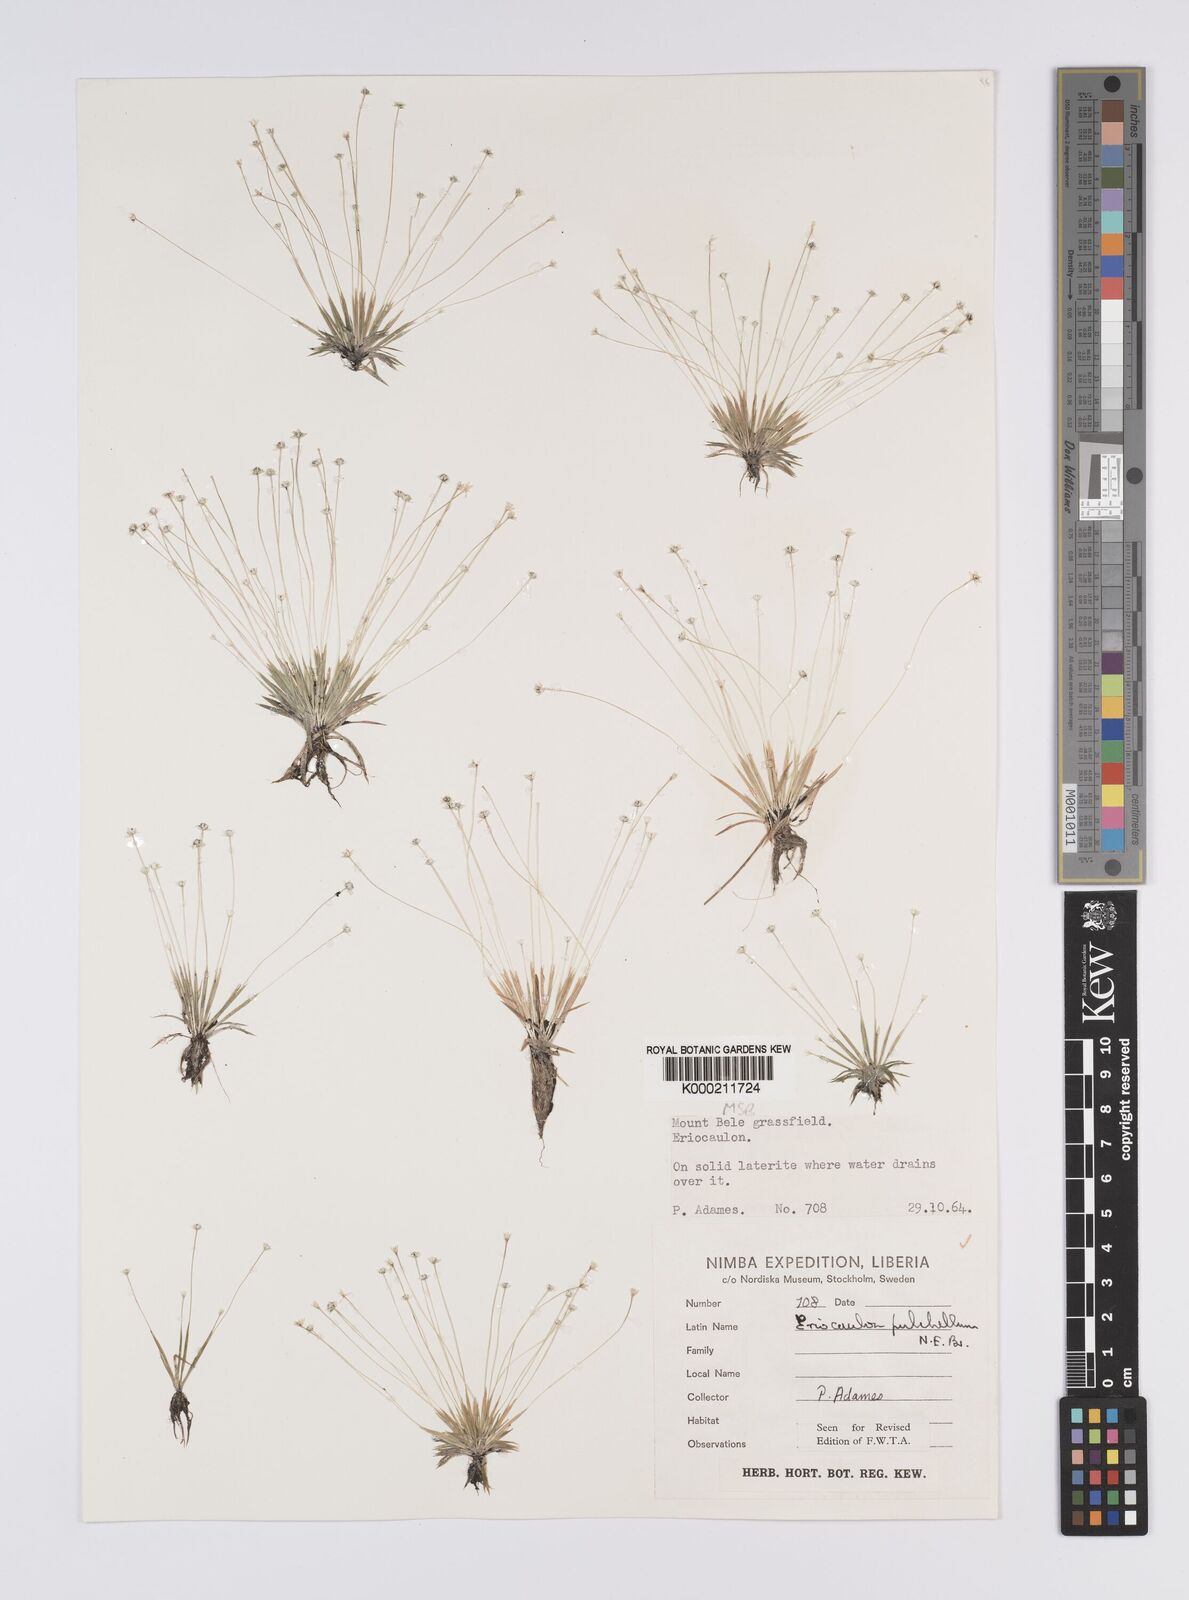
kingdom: Plantae
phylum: Tracheophyta
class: Liliopsida
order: Poales
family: Eriocaulaceae
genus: Eriocaulon
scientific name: Eriocaulon
